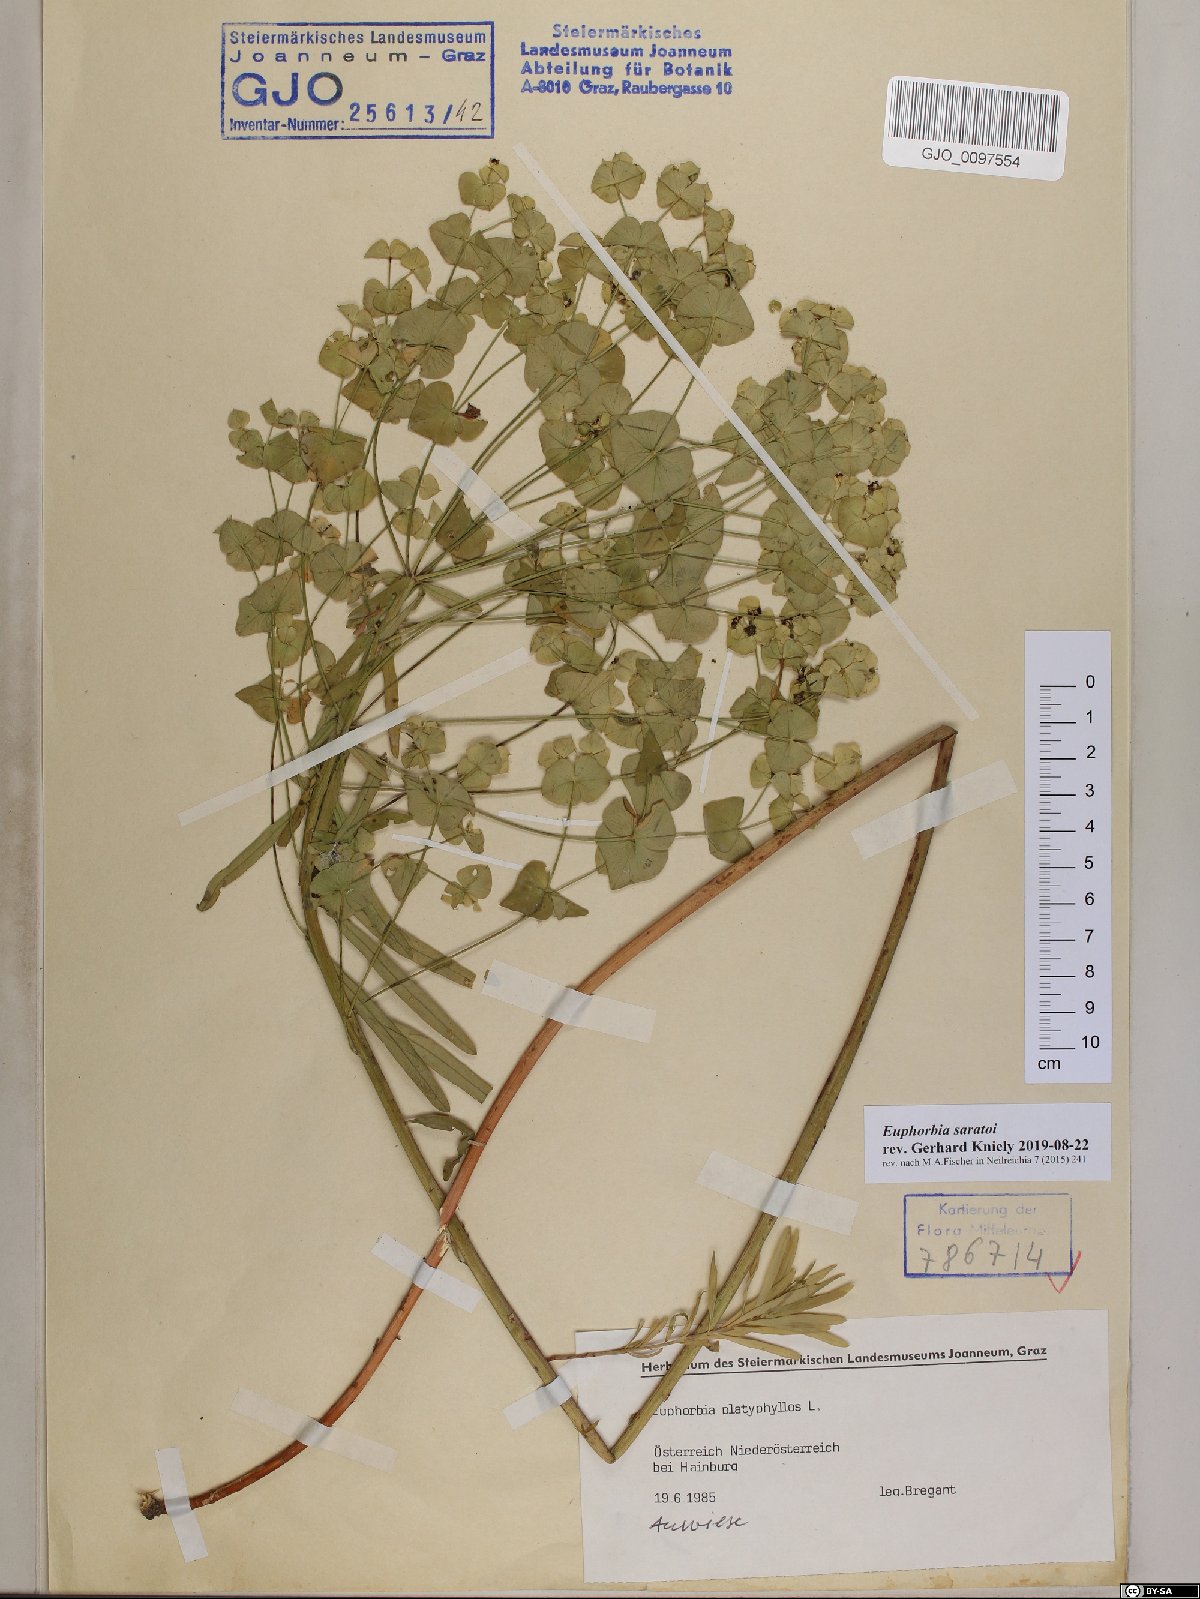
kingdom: Plantae
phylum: Tracheophyta
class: Magnoliopsida
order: Malpighiales
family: Euphorbiaceae
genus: Euphorbia
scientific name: Euphorbia saratoi
